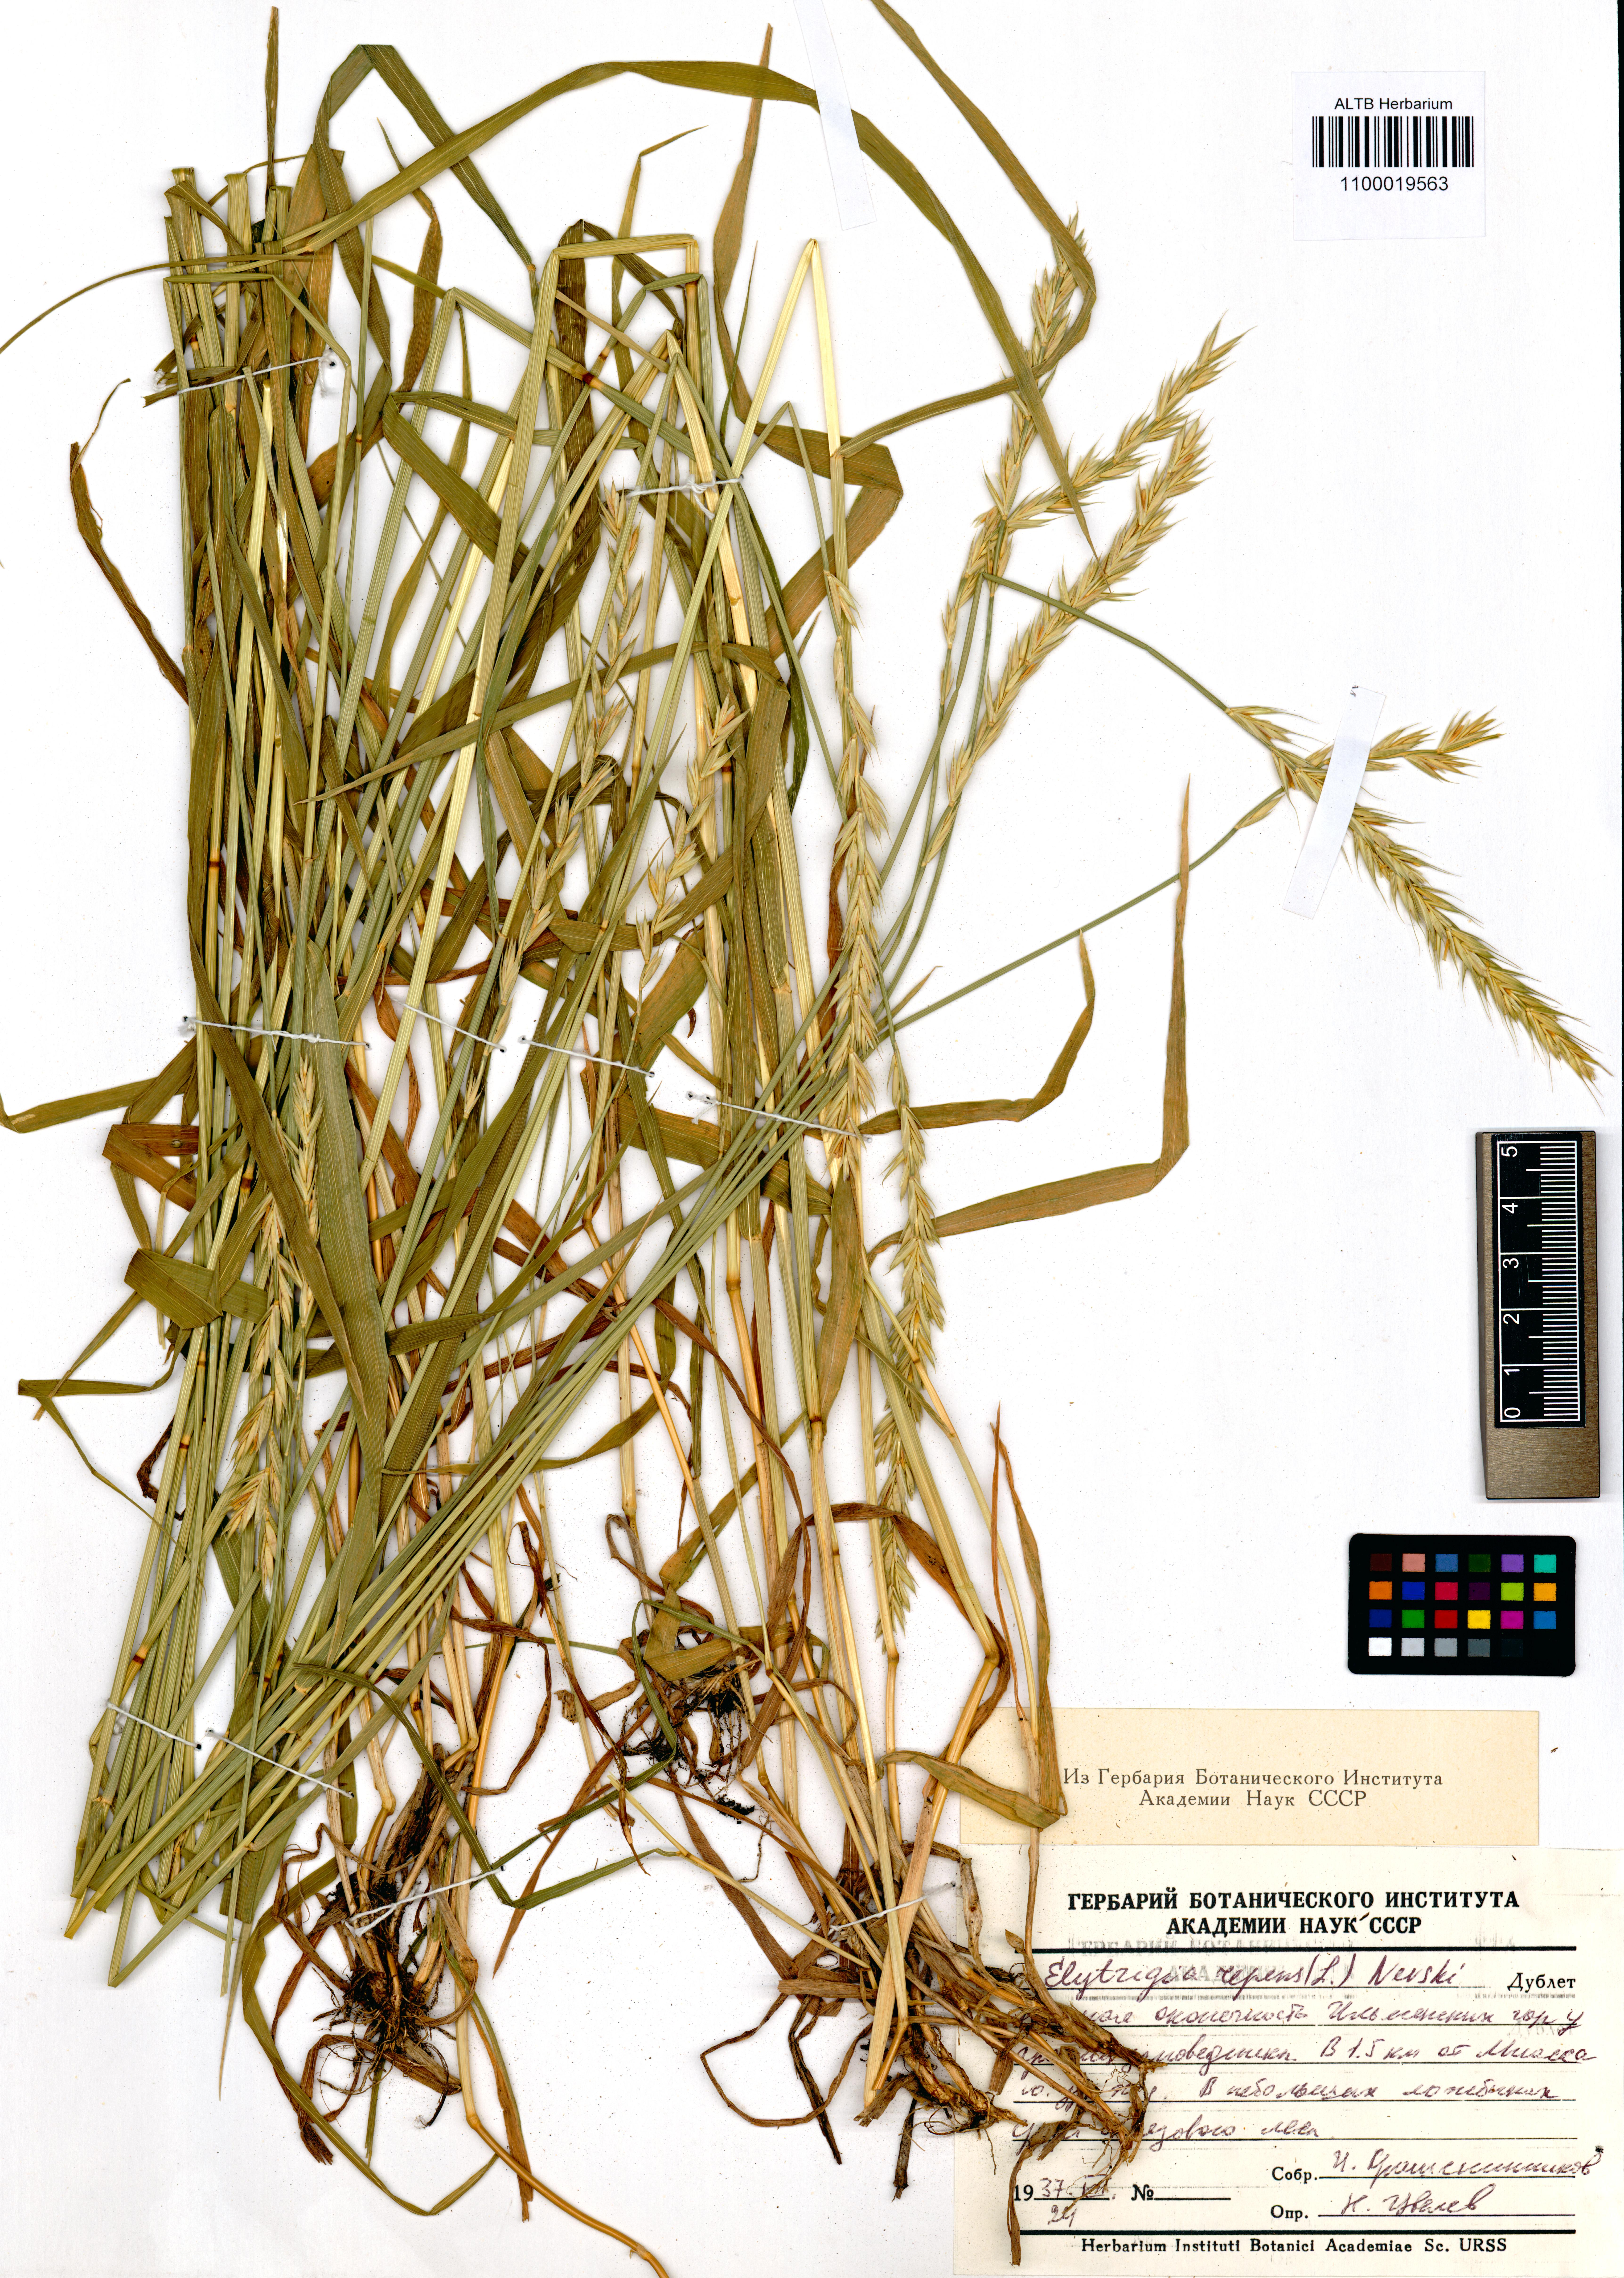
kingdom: Plantae
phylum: Tracheophyta
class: Liliopsida
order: Poales
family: Poaceae
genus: Elymus
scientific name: Elymus repens
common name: Quackgrass
